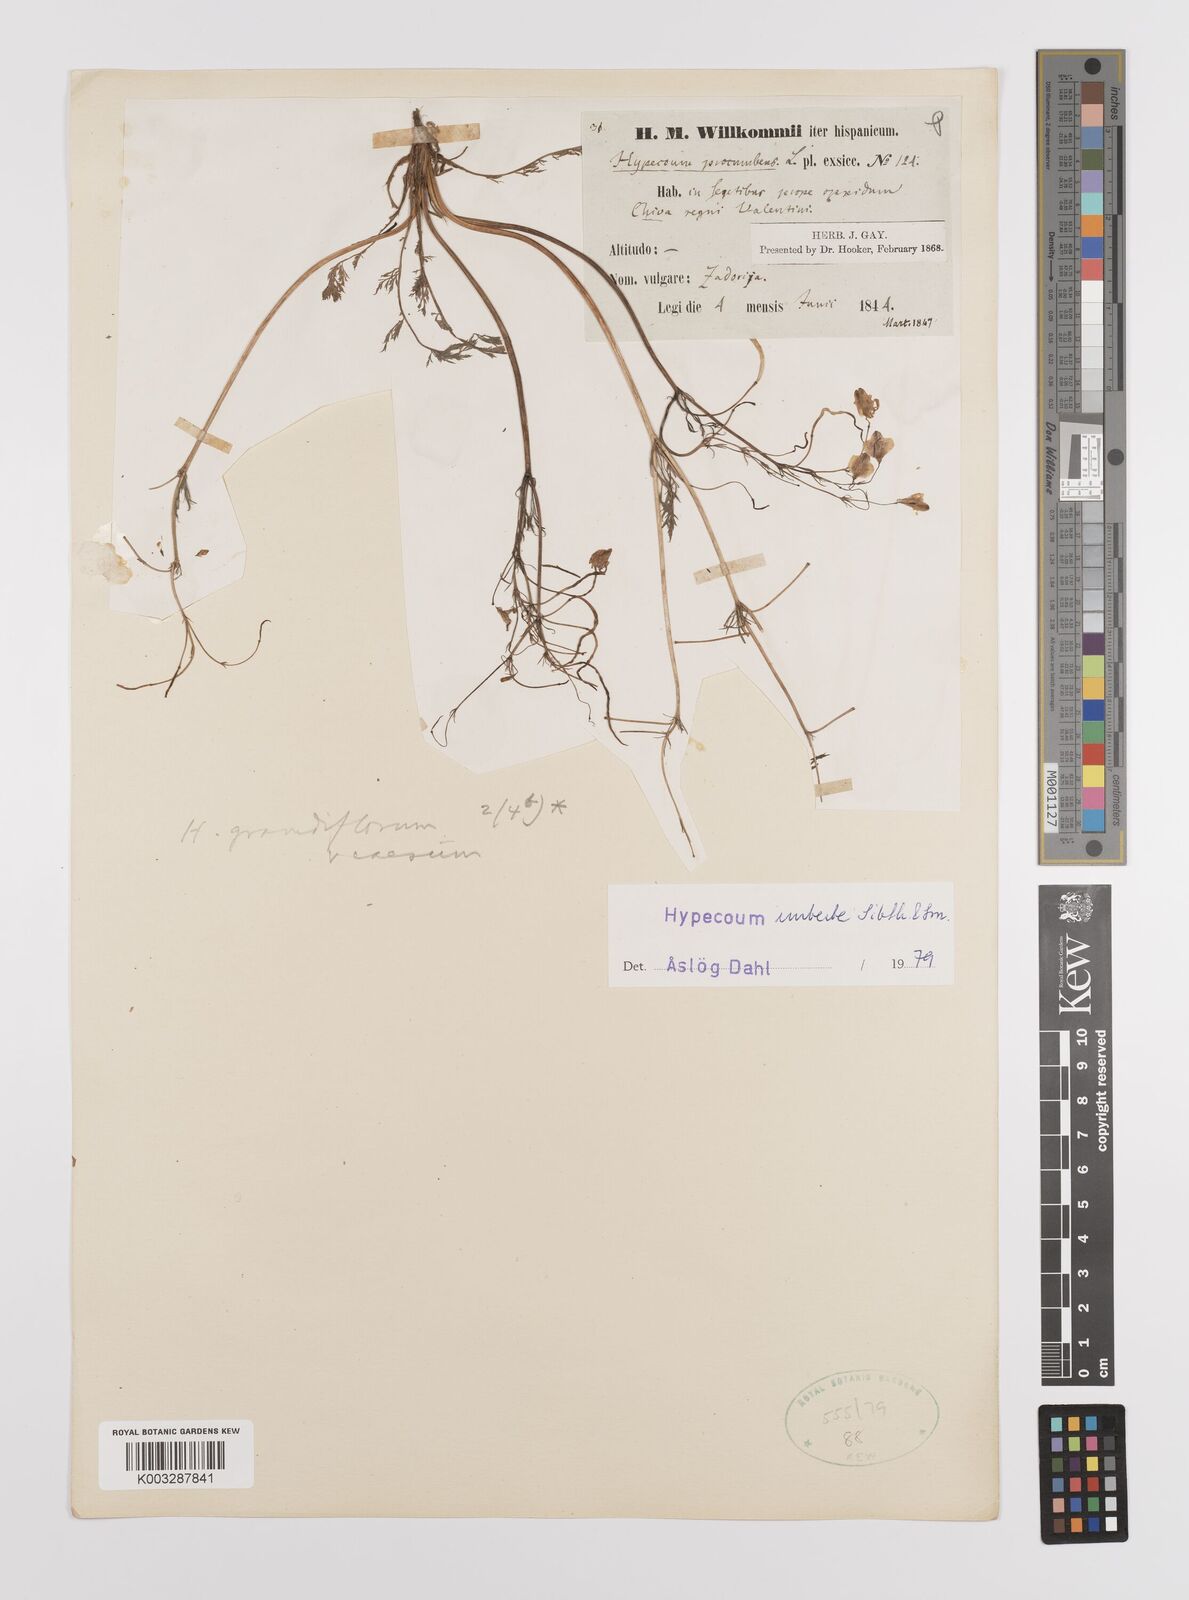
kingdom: Plantae
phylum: Tracheophyta
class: Magnoliopsida
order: Ranunculales
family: Papaveraceae
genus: Hypecoum
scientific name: Hypecoum imberbe
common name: Sicklefruit hypecoum
